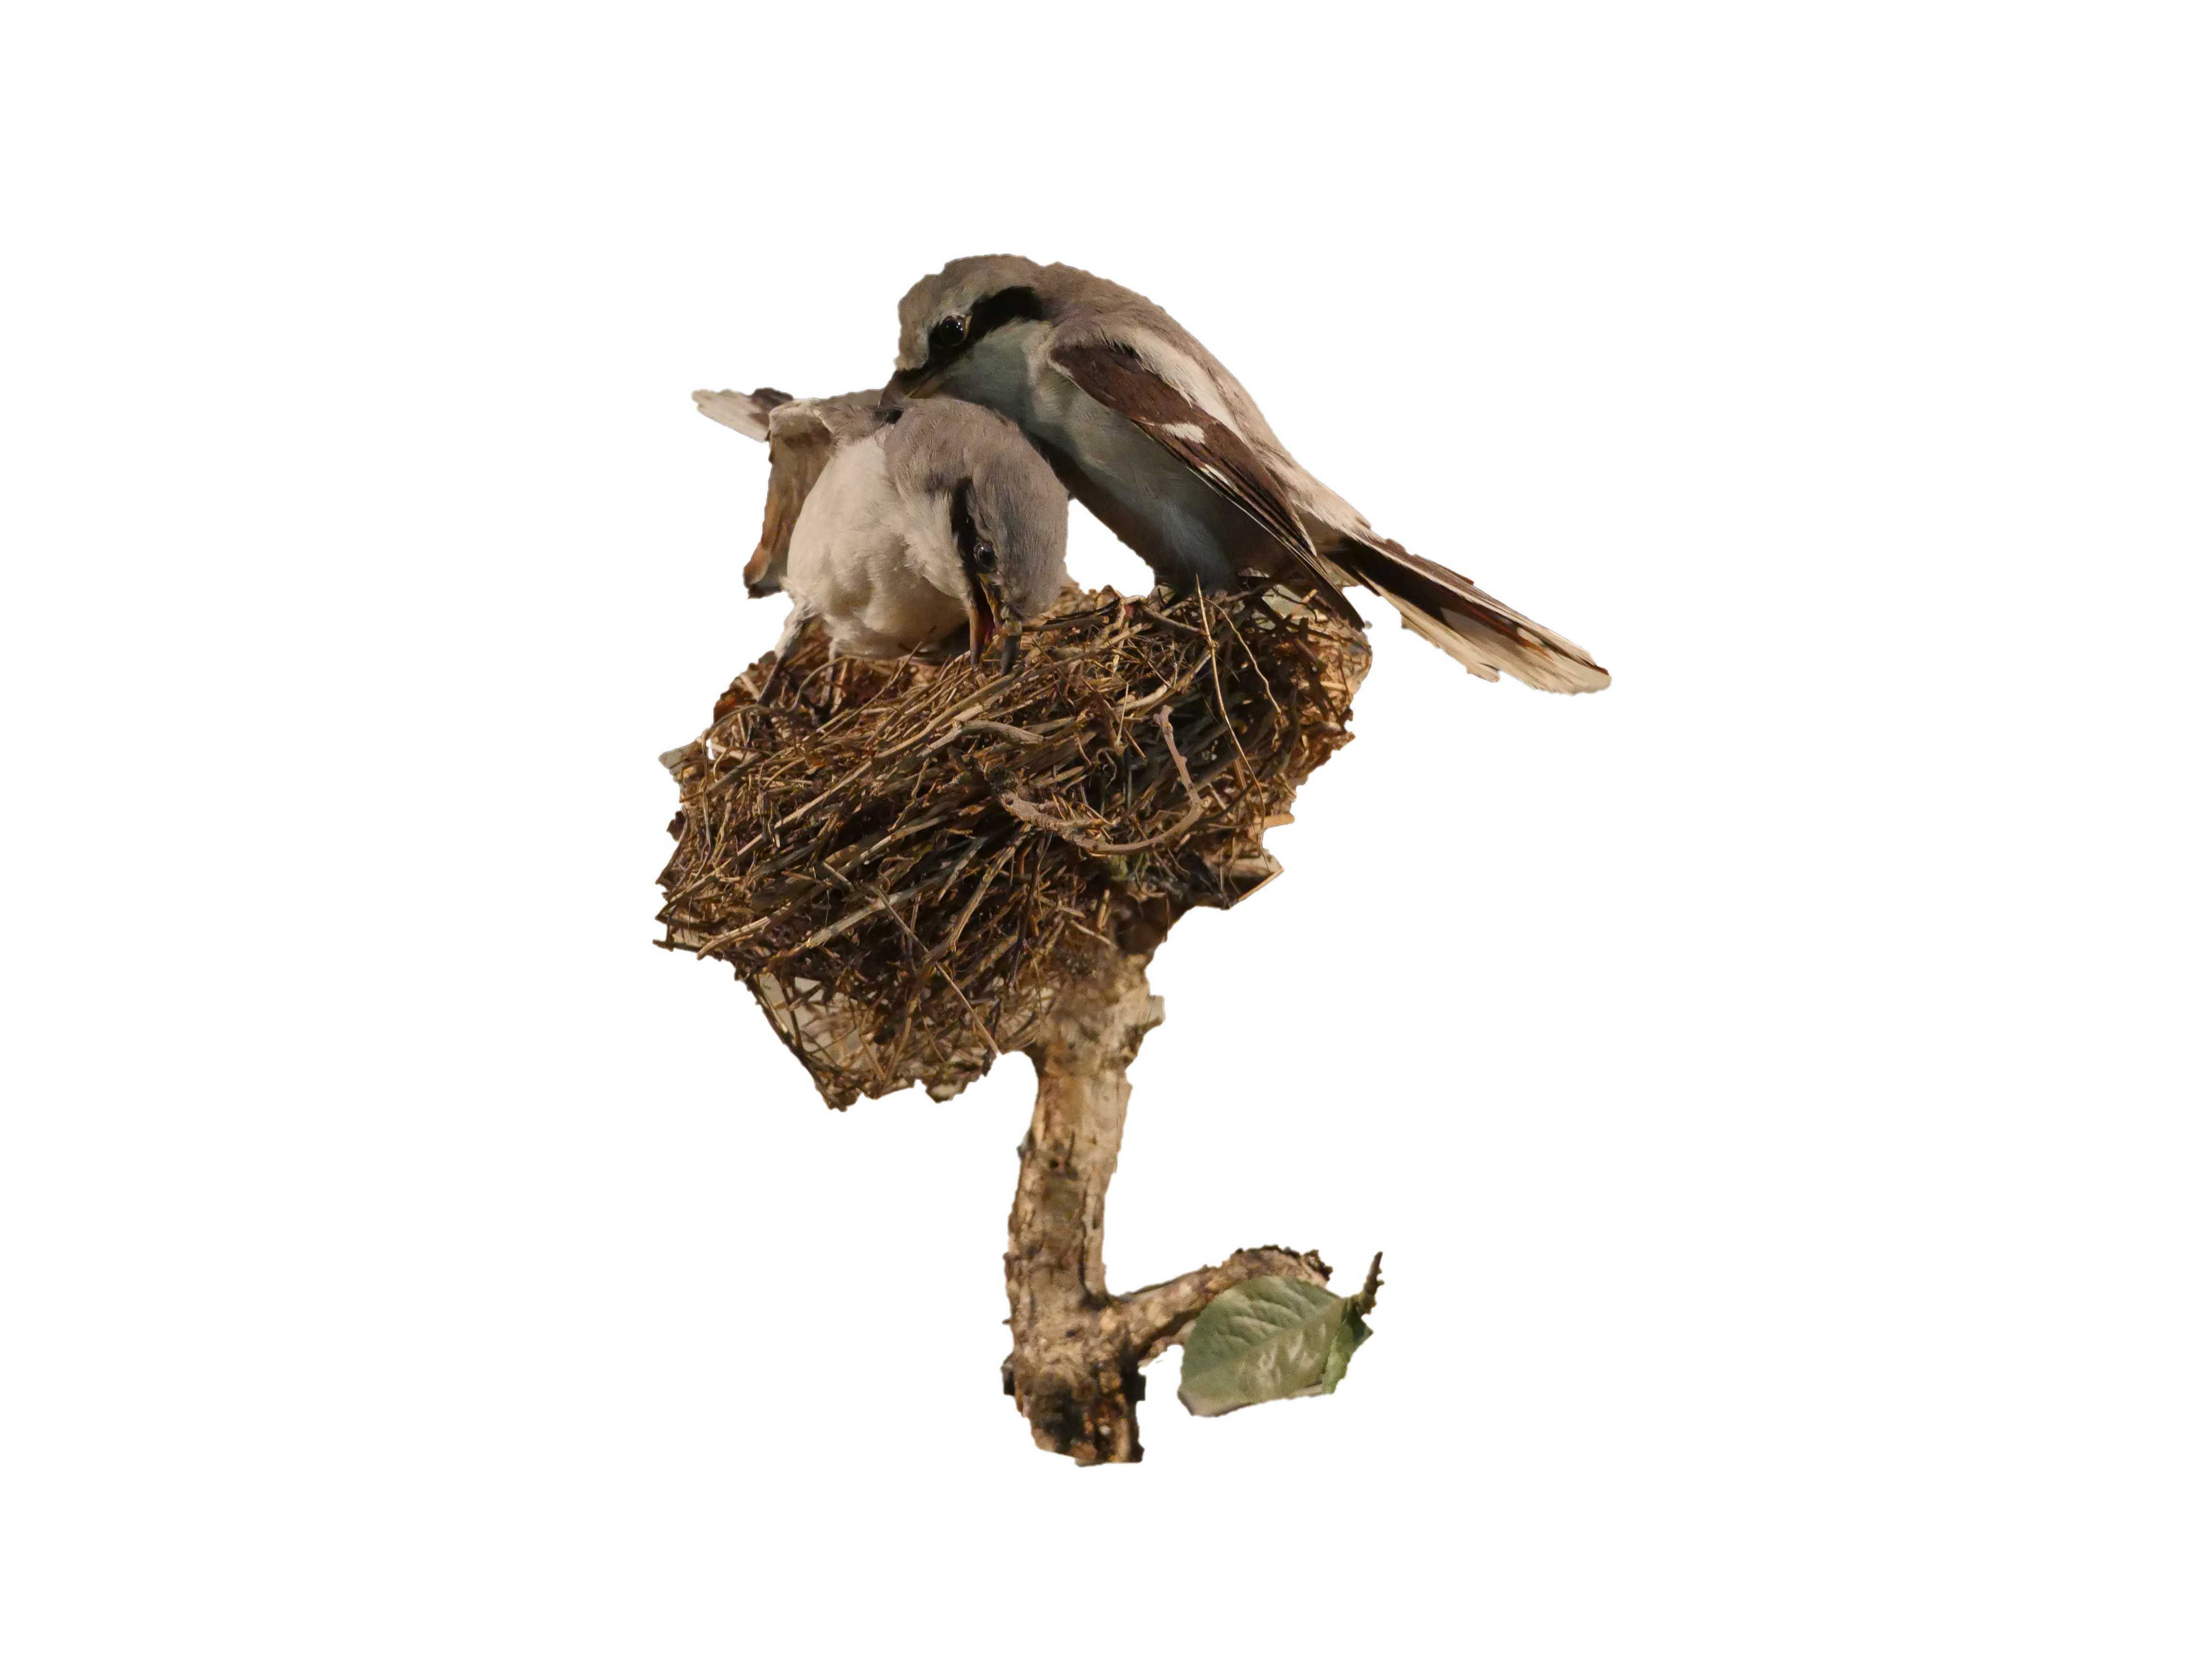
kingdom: Animalia
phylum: Chordata
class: Aves
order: Passeriformes
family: Laniidae
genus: Lanius
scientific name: Lanius excubitor
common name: Great grey shrike
